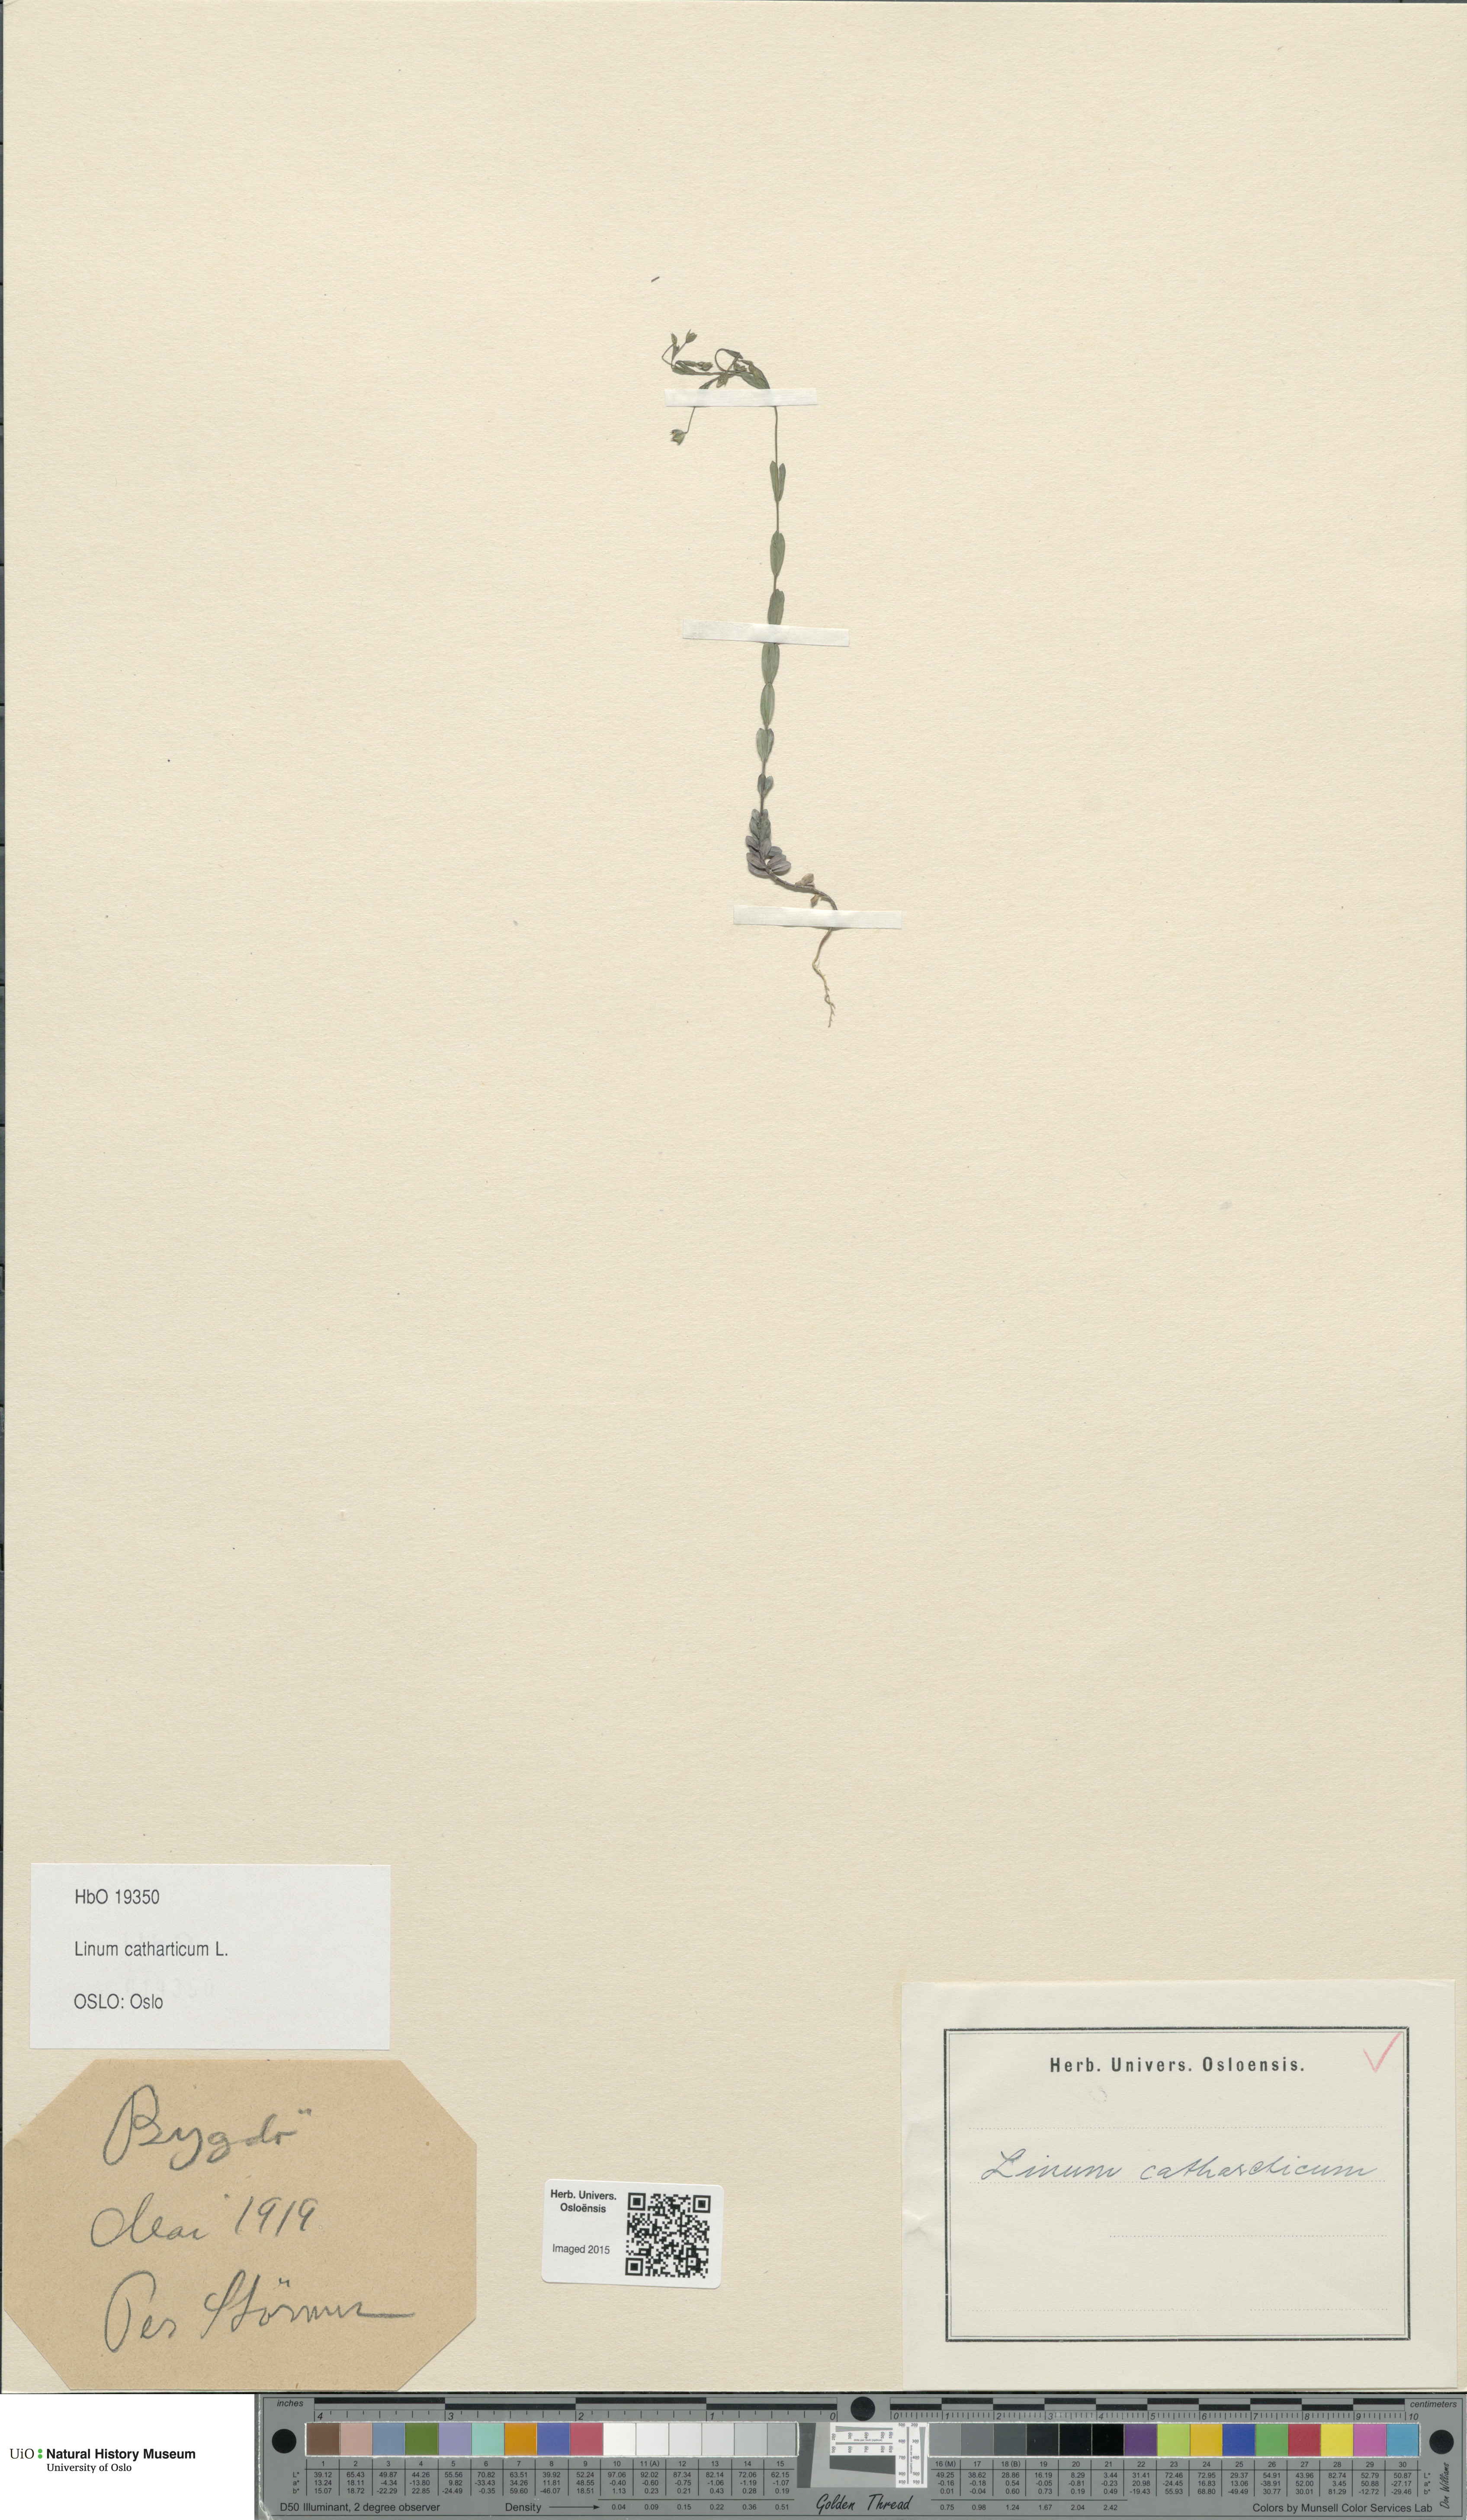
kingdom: Plantae
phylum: Tracheophyta
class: Magnoliopsida
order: Malpighiales
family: Linaceae
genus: Linum
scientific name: Linum catharticum
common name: Fairy flax
